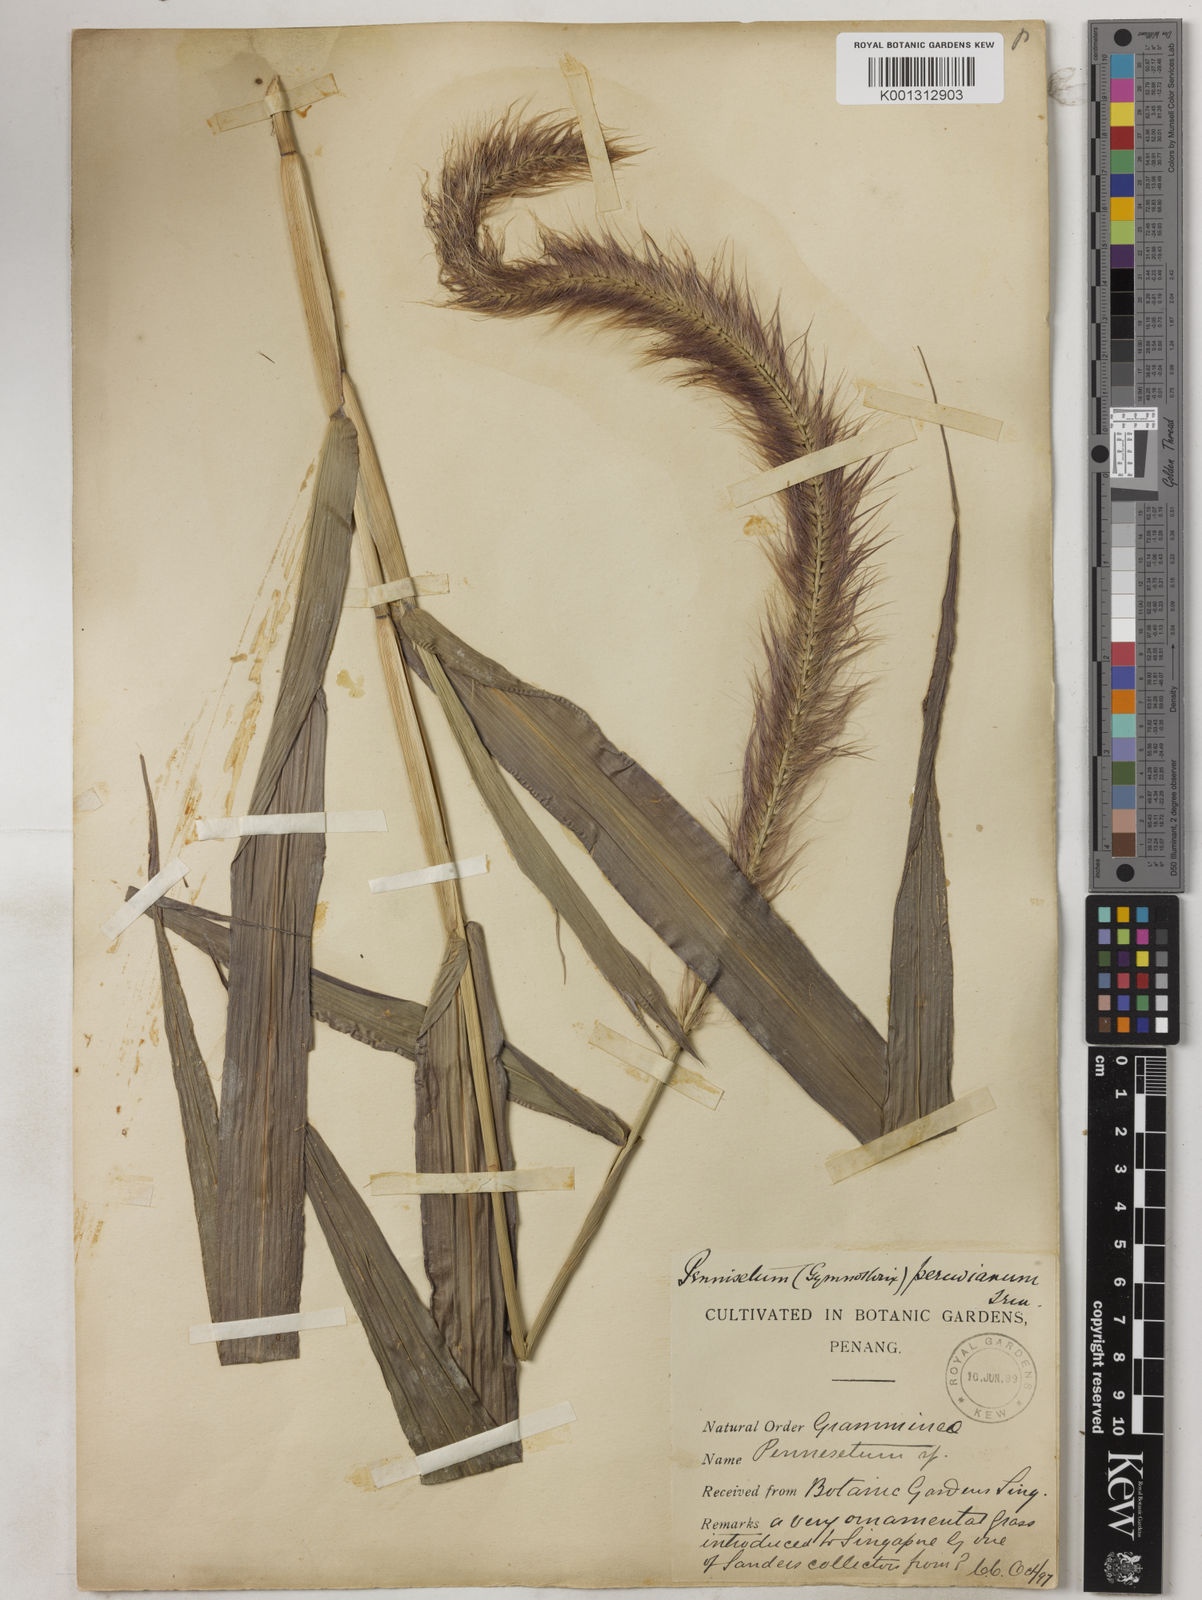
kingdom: Plantae
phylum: Tracheophyta
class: Liliopsida
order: Poales
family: Poaceae
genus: Cenchrus
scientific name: Cenchrus purpureus
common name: Elephant grass
